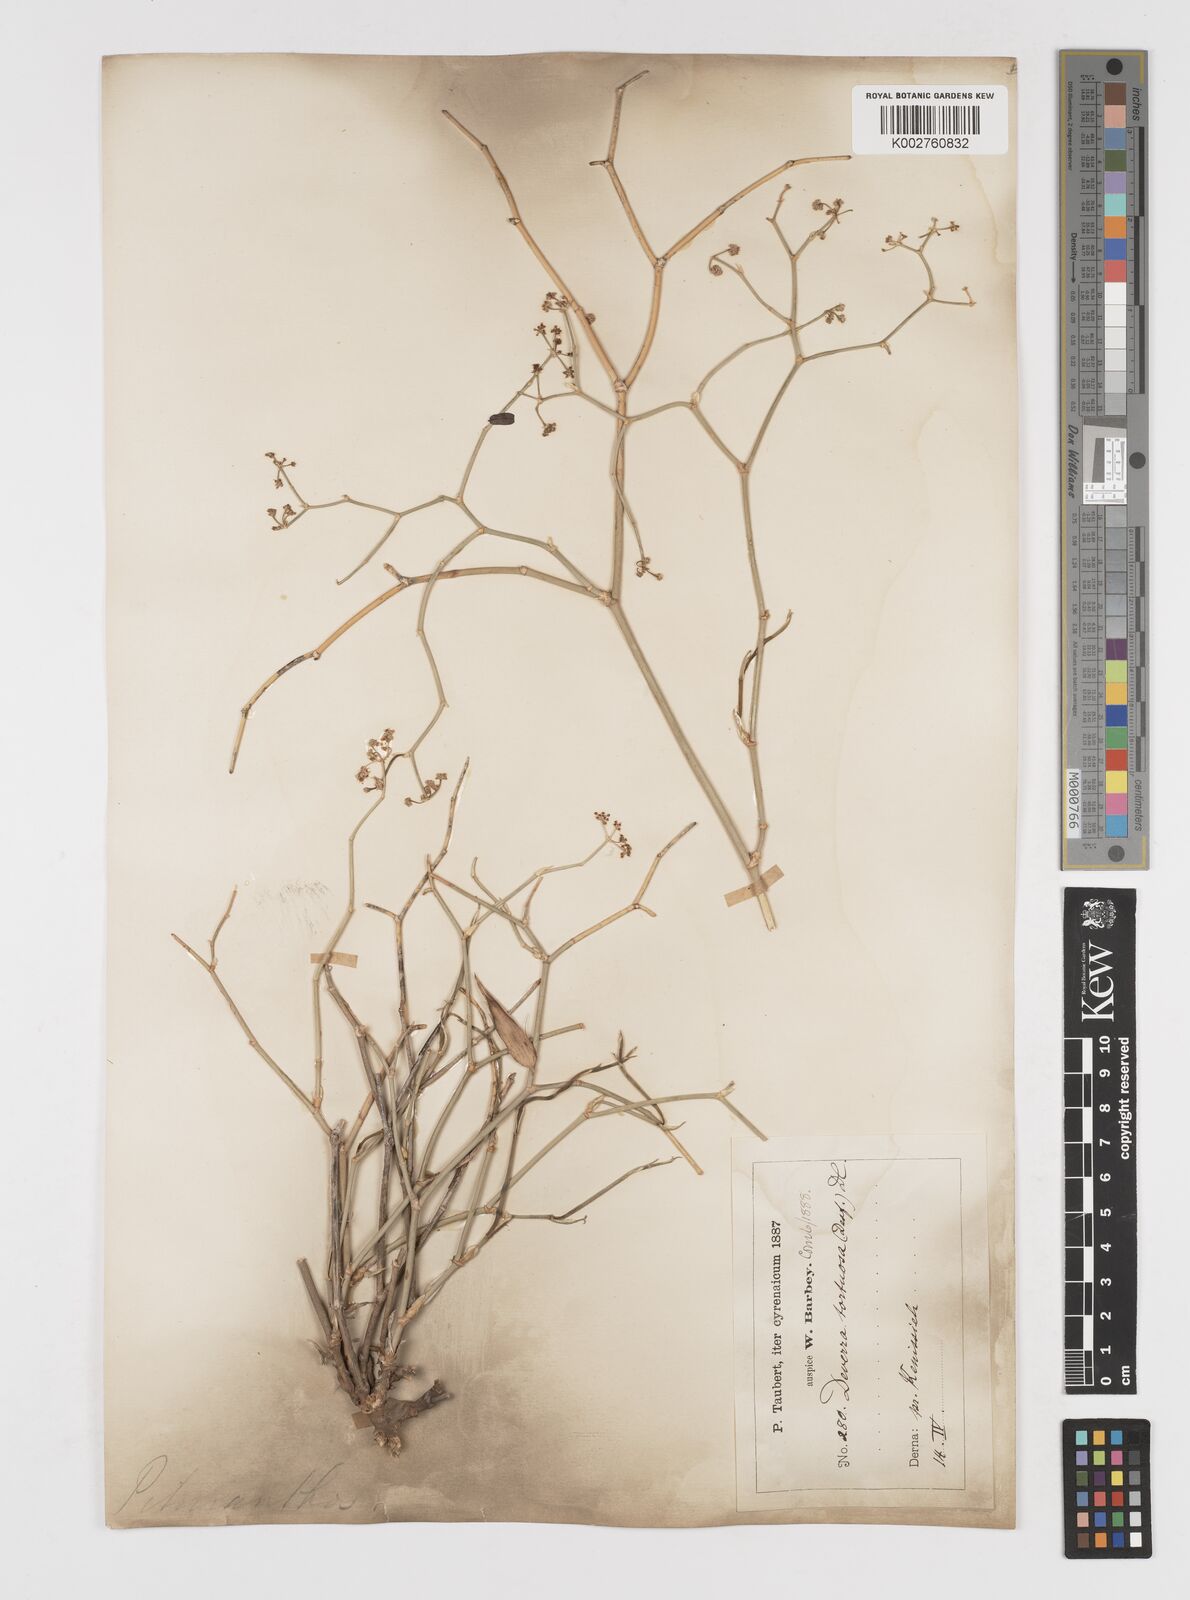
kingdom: Plantae
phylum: Tracheophyta
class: Magnoliopsida
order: Apiales
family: Apiaceae
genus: Deverra
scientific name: Deverra
